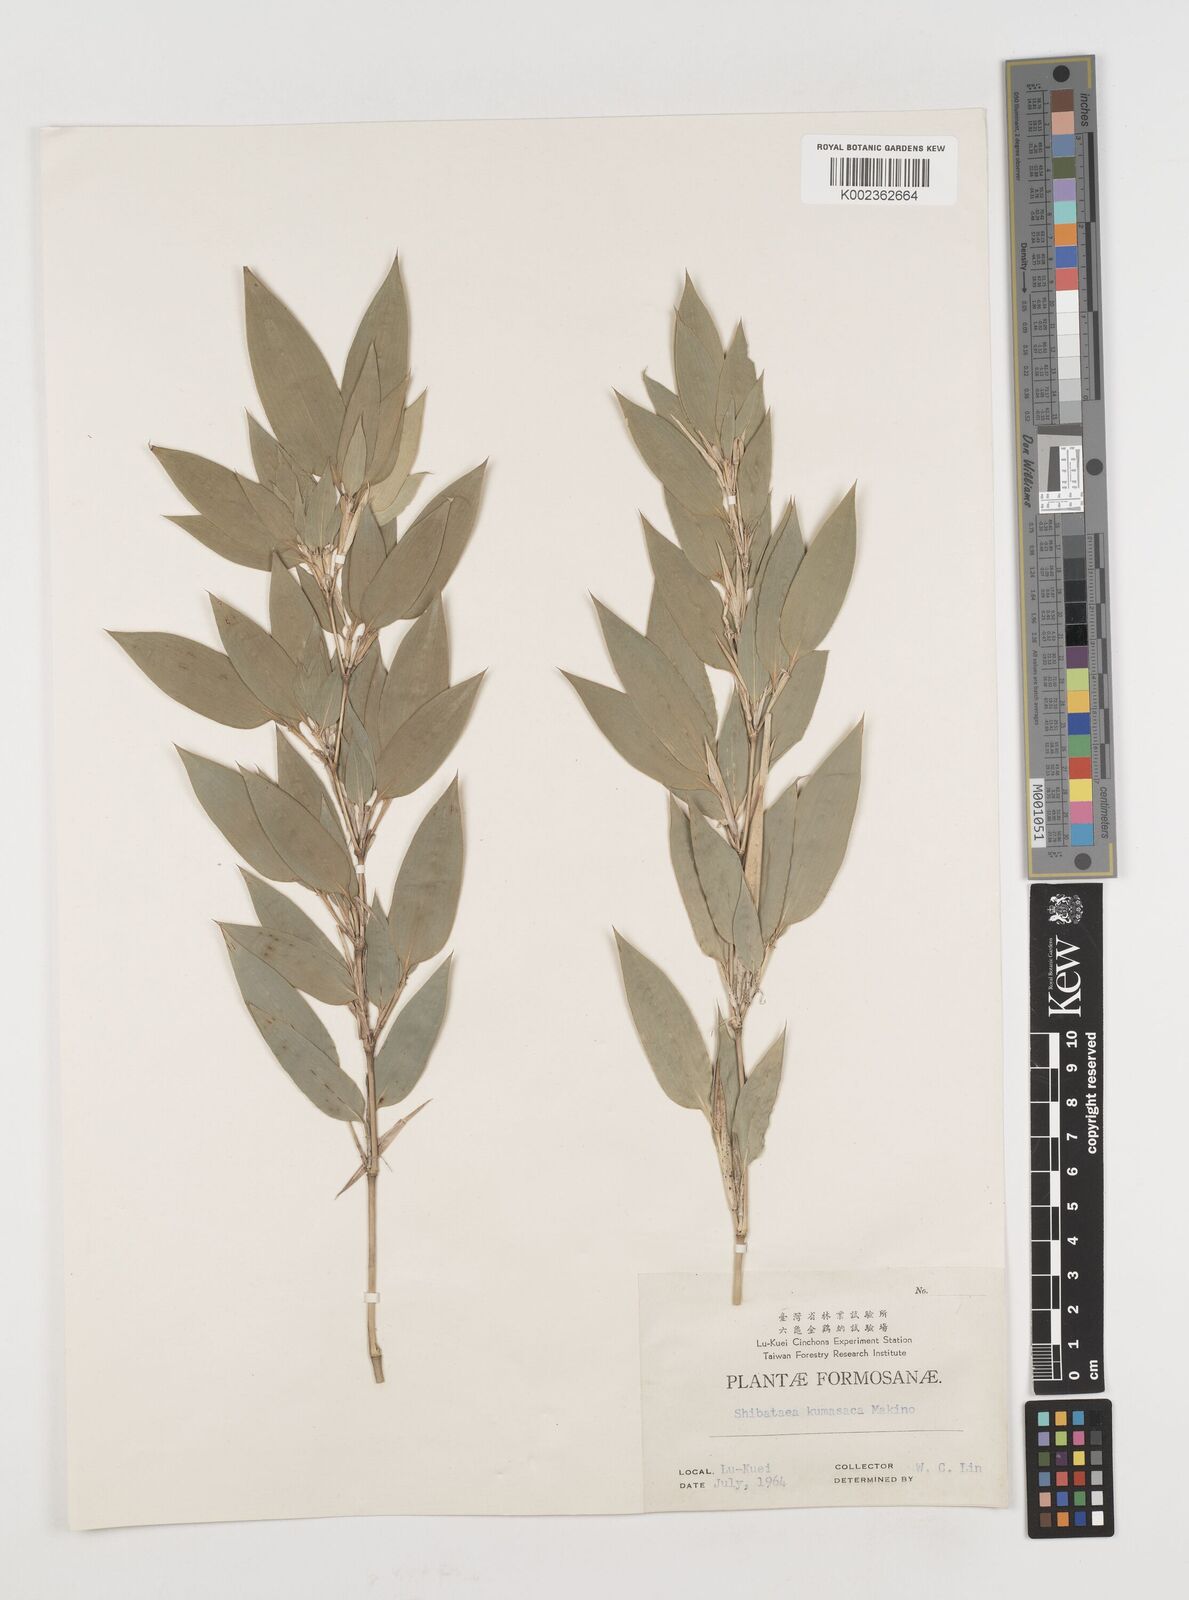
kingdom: Plantae
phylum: Tracheophyta
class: Liliopsida
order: Poales
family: Poaceae
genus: Shibataea
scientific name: Shibataea kumasasa
